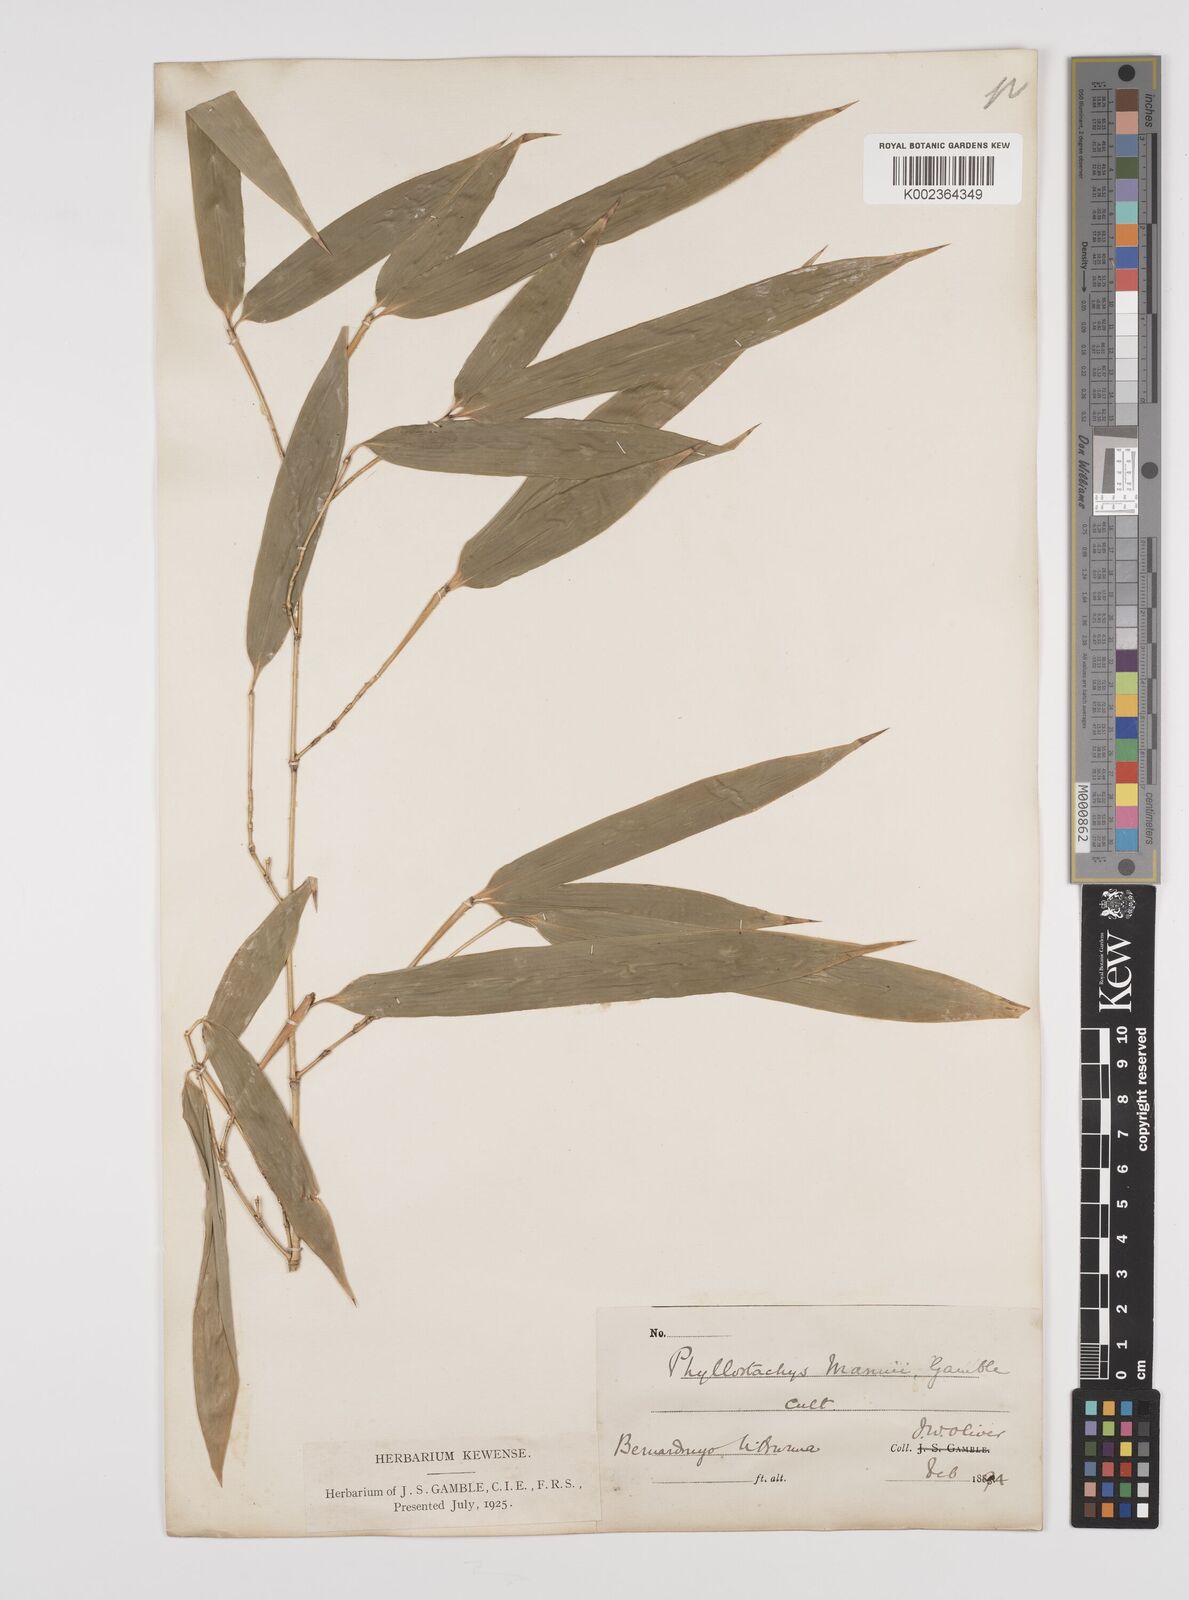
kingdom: Plantae
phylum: Tracheophyta
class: Liliopsida
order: Poales
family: Poaceae
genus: Phyllostachys
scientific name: Phyllostachys mannii
